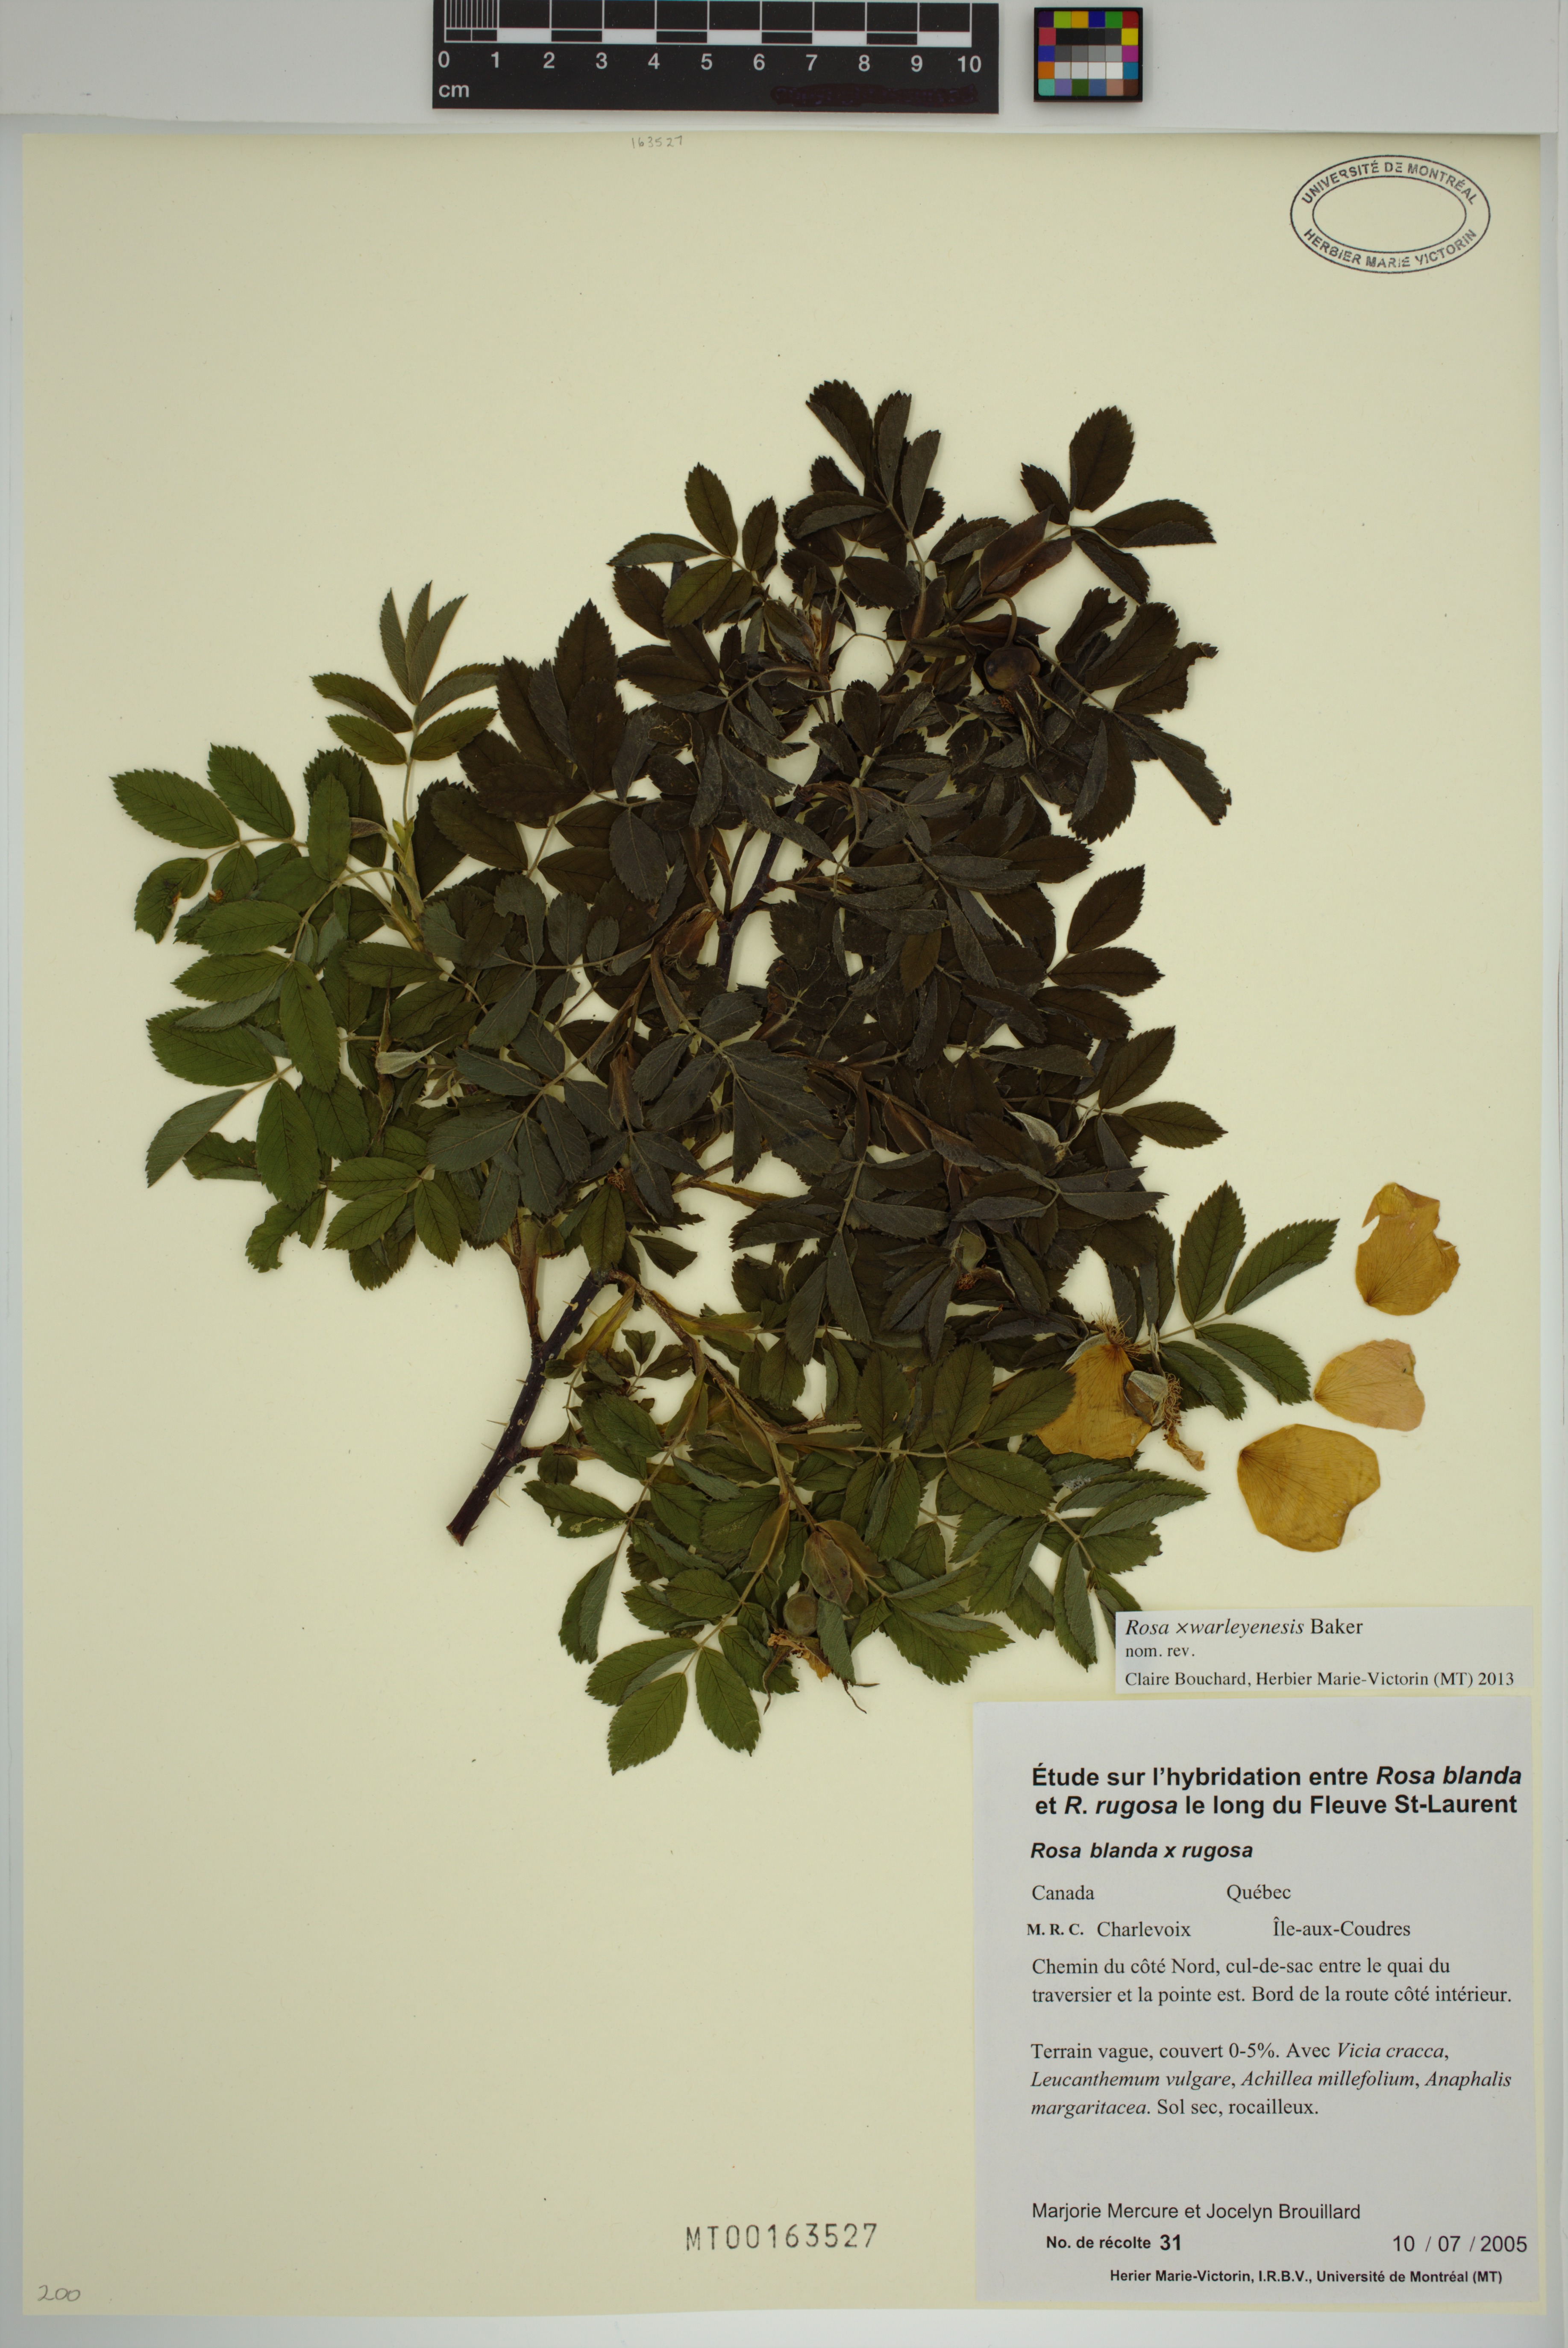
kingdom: Plantae
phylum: Tracheophyta
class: Magnoliopsida
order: Rosales
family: Rosaceae
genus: Rosa
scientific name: Rosa warleyensis
